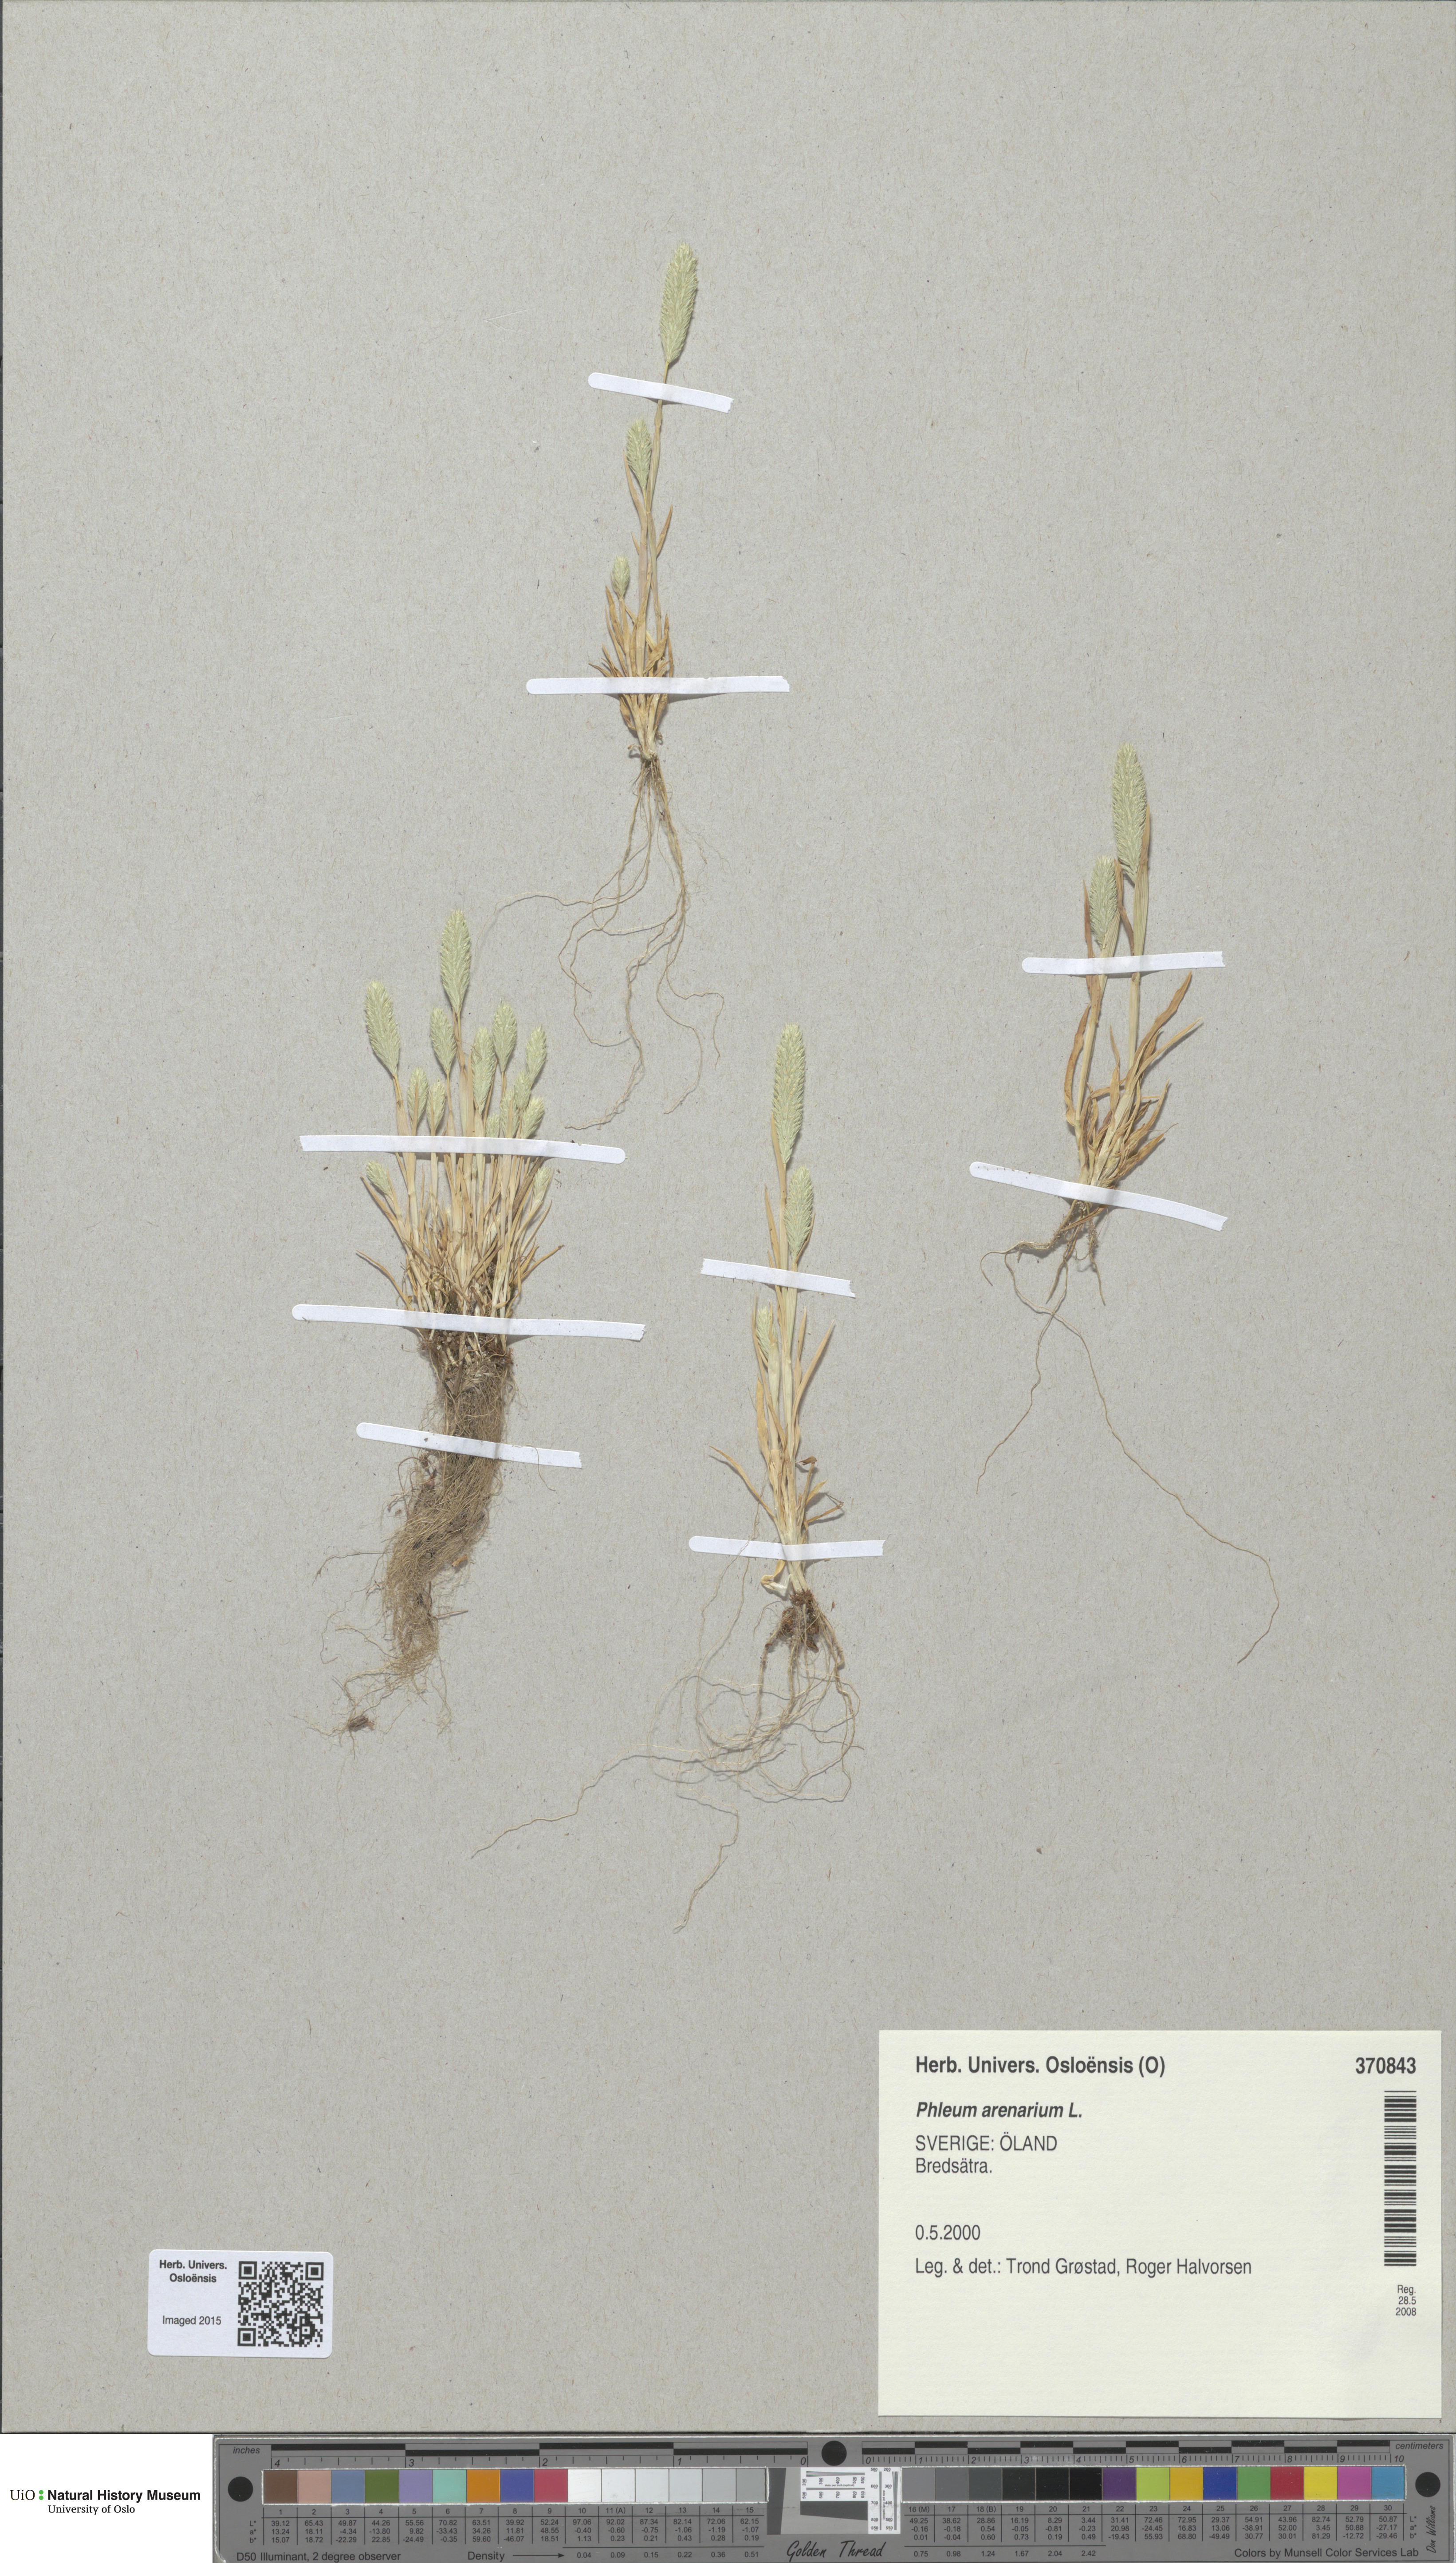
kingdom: Plantae
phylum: Tracheophyta
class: Liliopsida
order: Poales
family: Poaceae
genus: Phleum
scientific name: Phleum arenarium
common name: Sand cat's-tail
